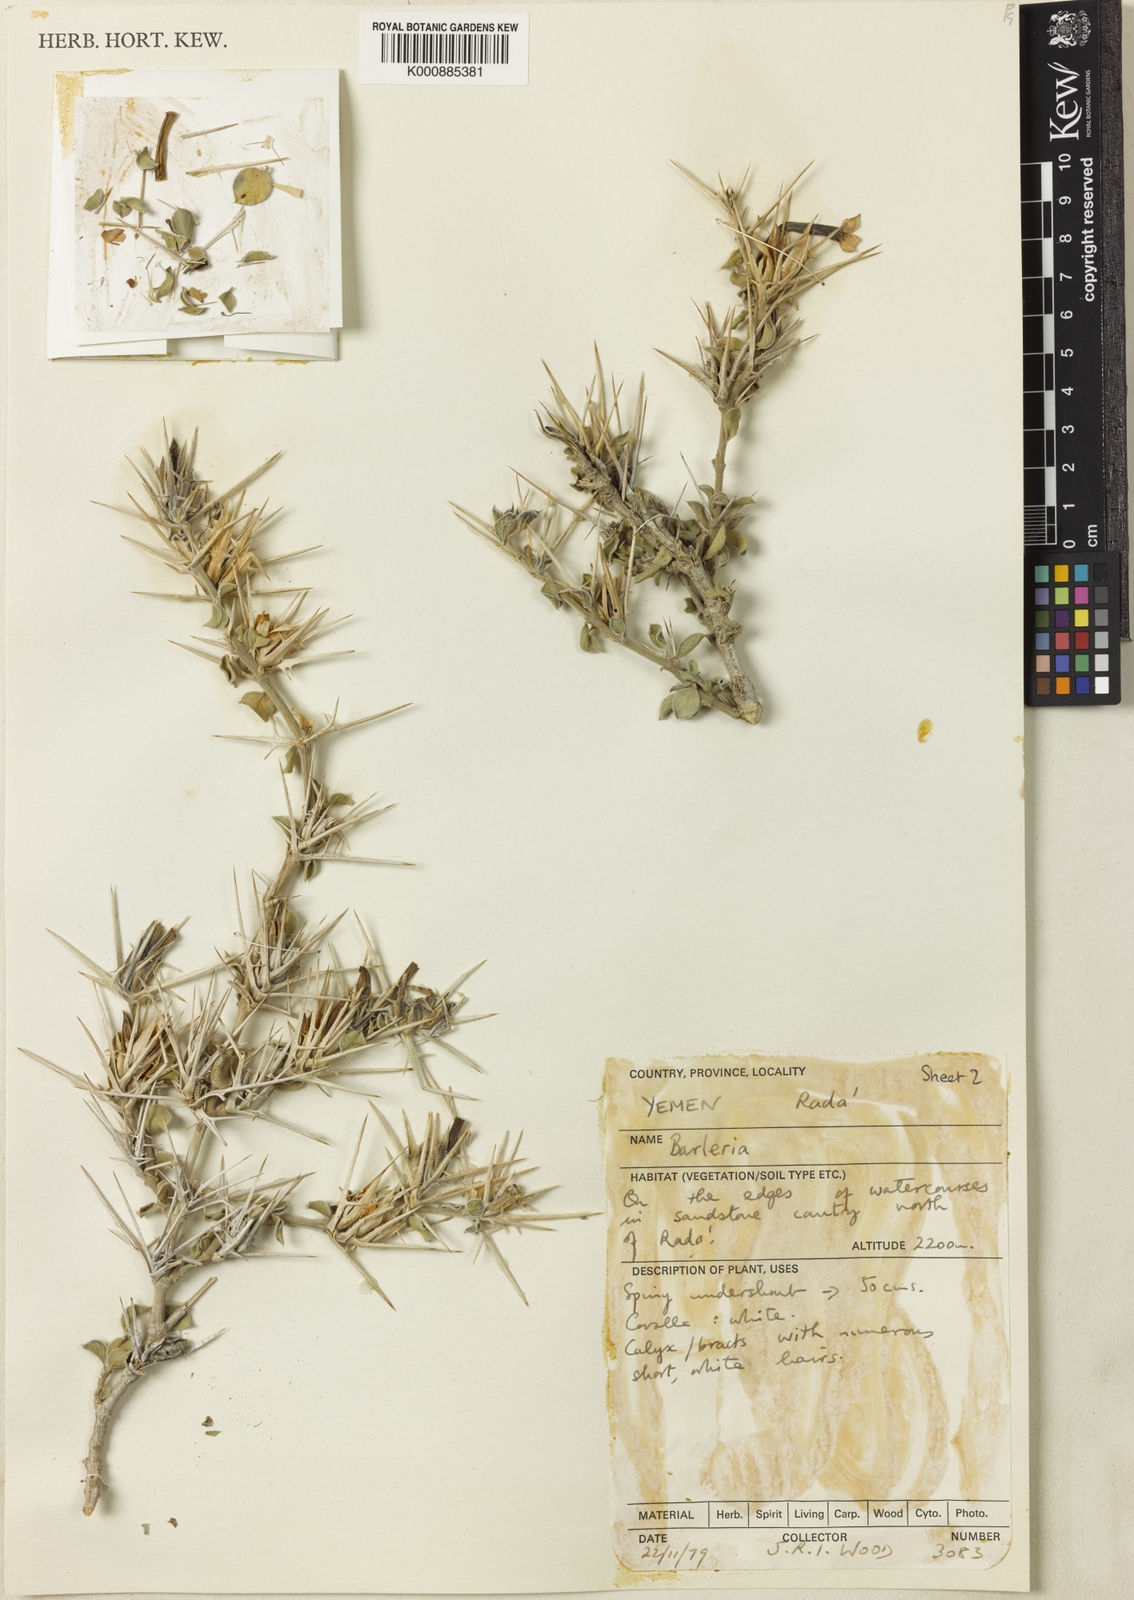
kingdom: Plantae
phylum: Tracheophyta
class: Magnoliopsida
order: Lamiales
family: Acanthaceae
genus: Barleria
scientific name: Barleria hillcoatiae
